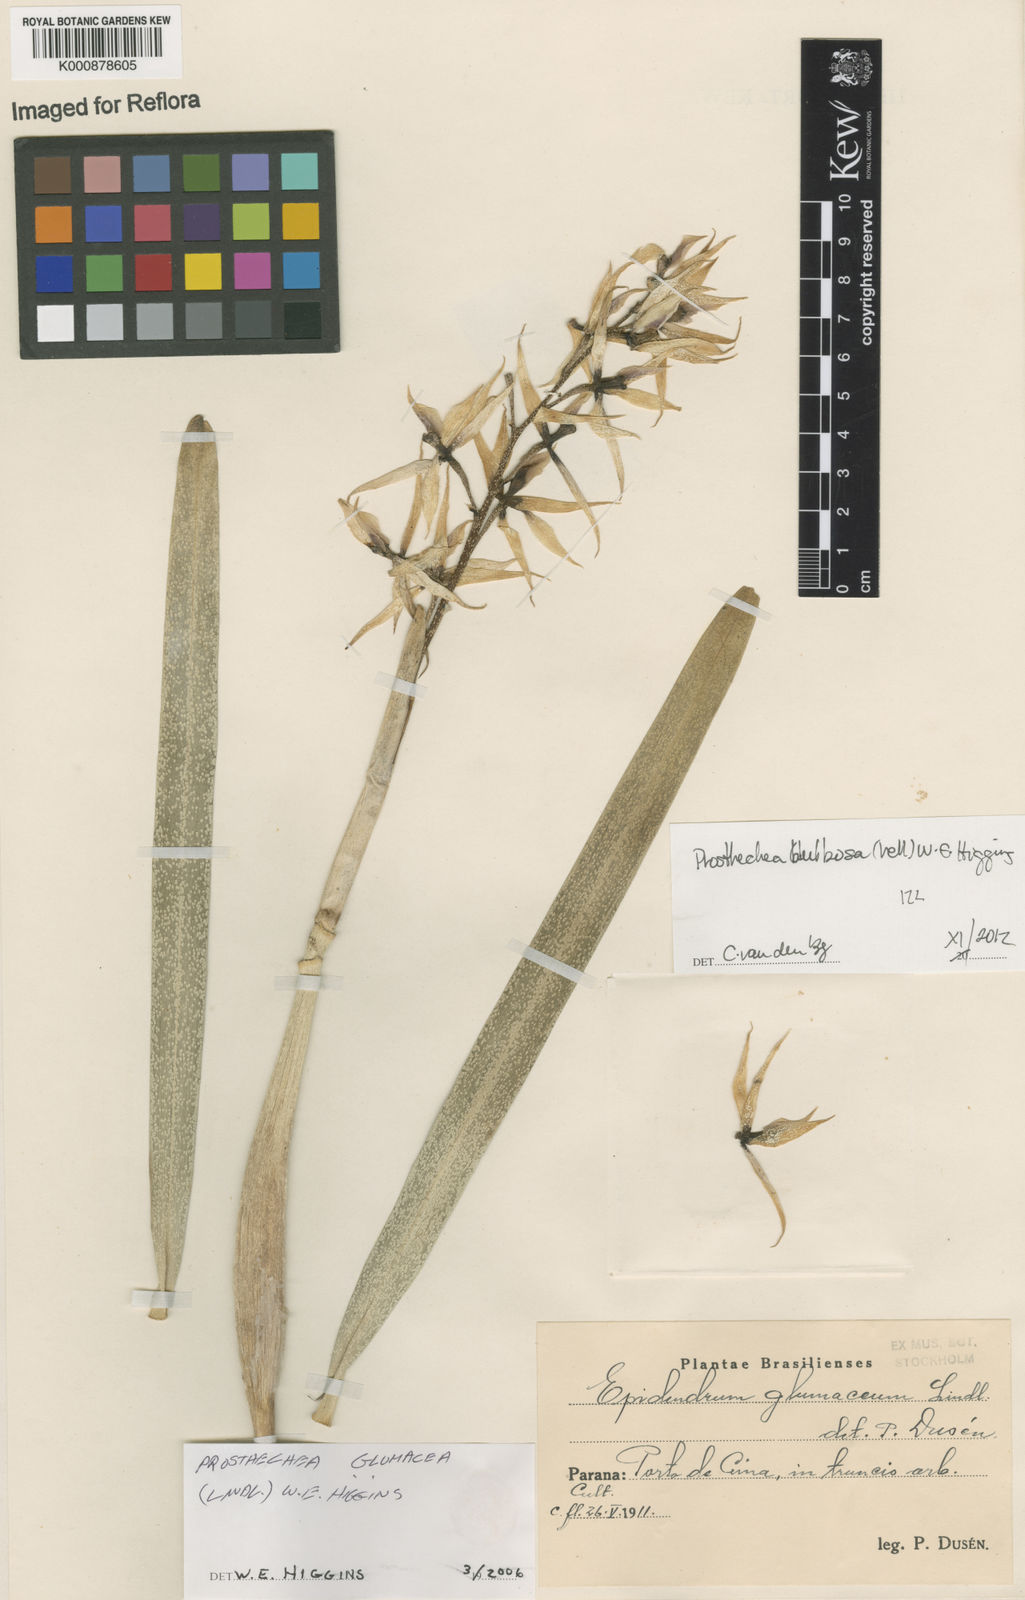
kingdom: Plantae
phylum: Tracheophyta
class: Liliopsida
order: Asparagales
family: Orchidaceae
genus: Prosthechea
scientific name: Prosthechea bulbosa
